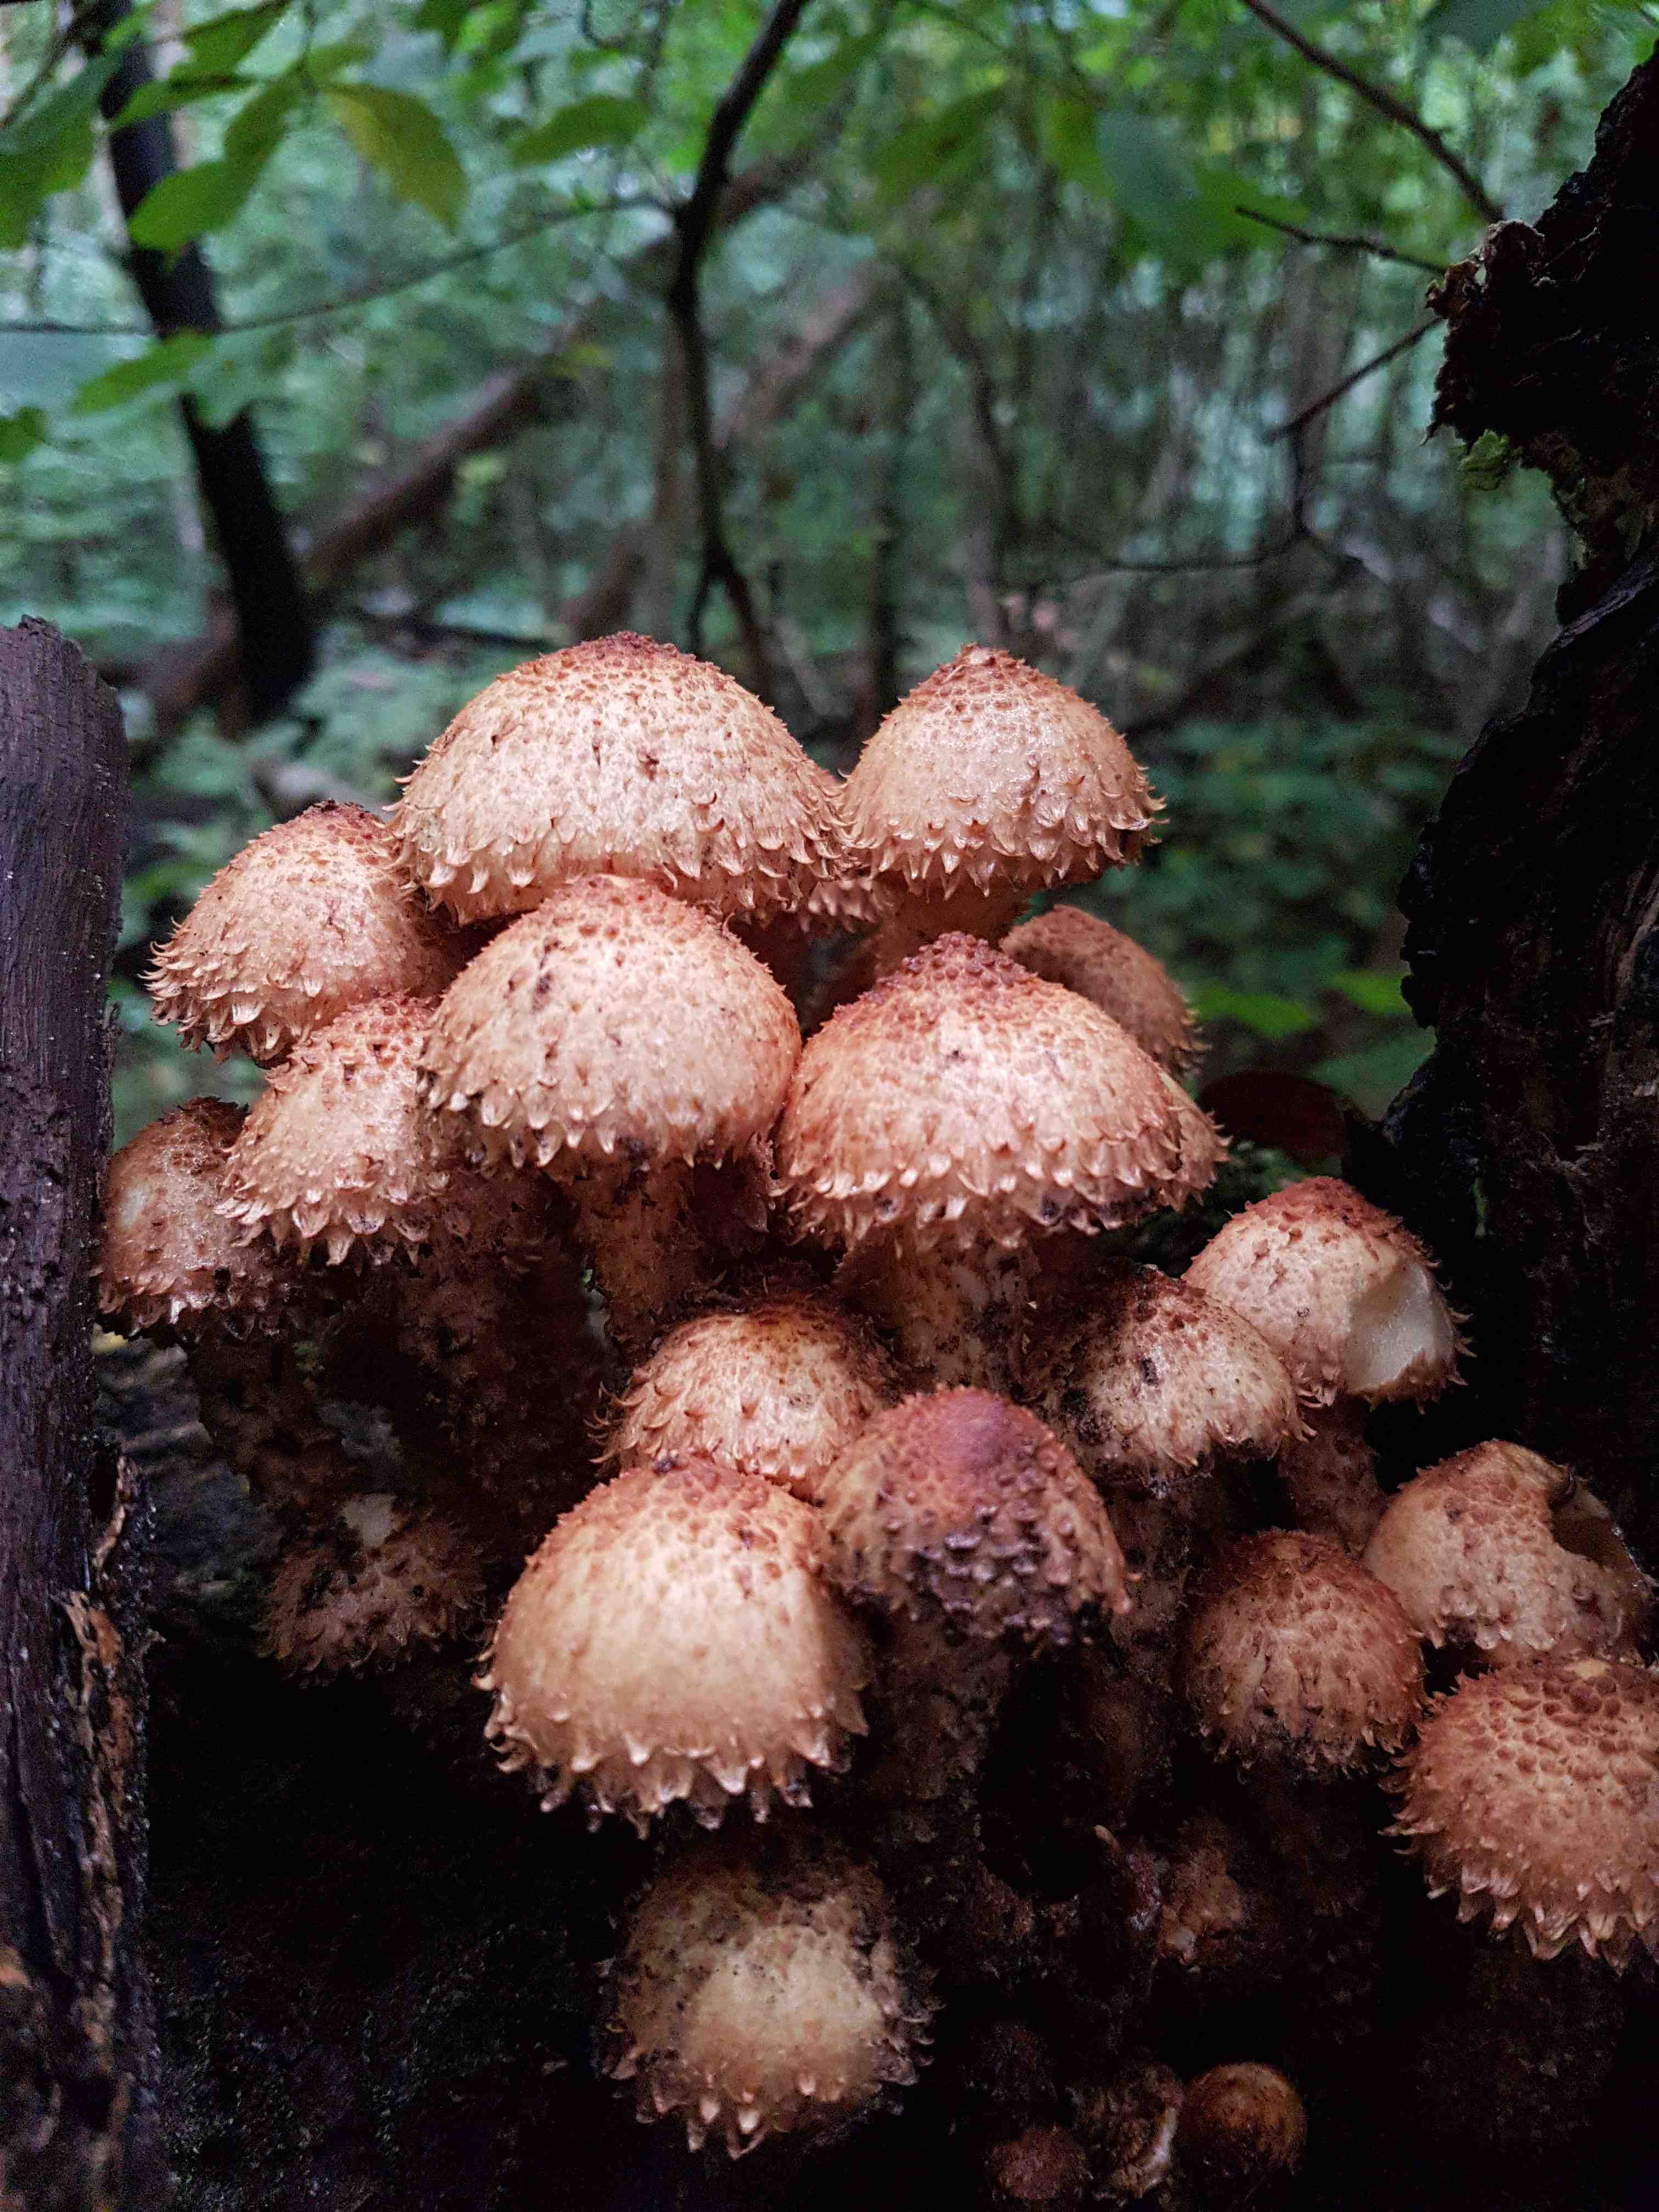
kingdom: Fungi
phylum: Basidiomycota
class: Agaricomycetes
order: Agaricales
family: Strophariaceae
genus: Pholiota
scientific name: Pholiota squarrosa
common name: krumskællet skælhat
